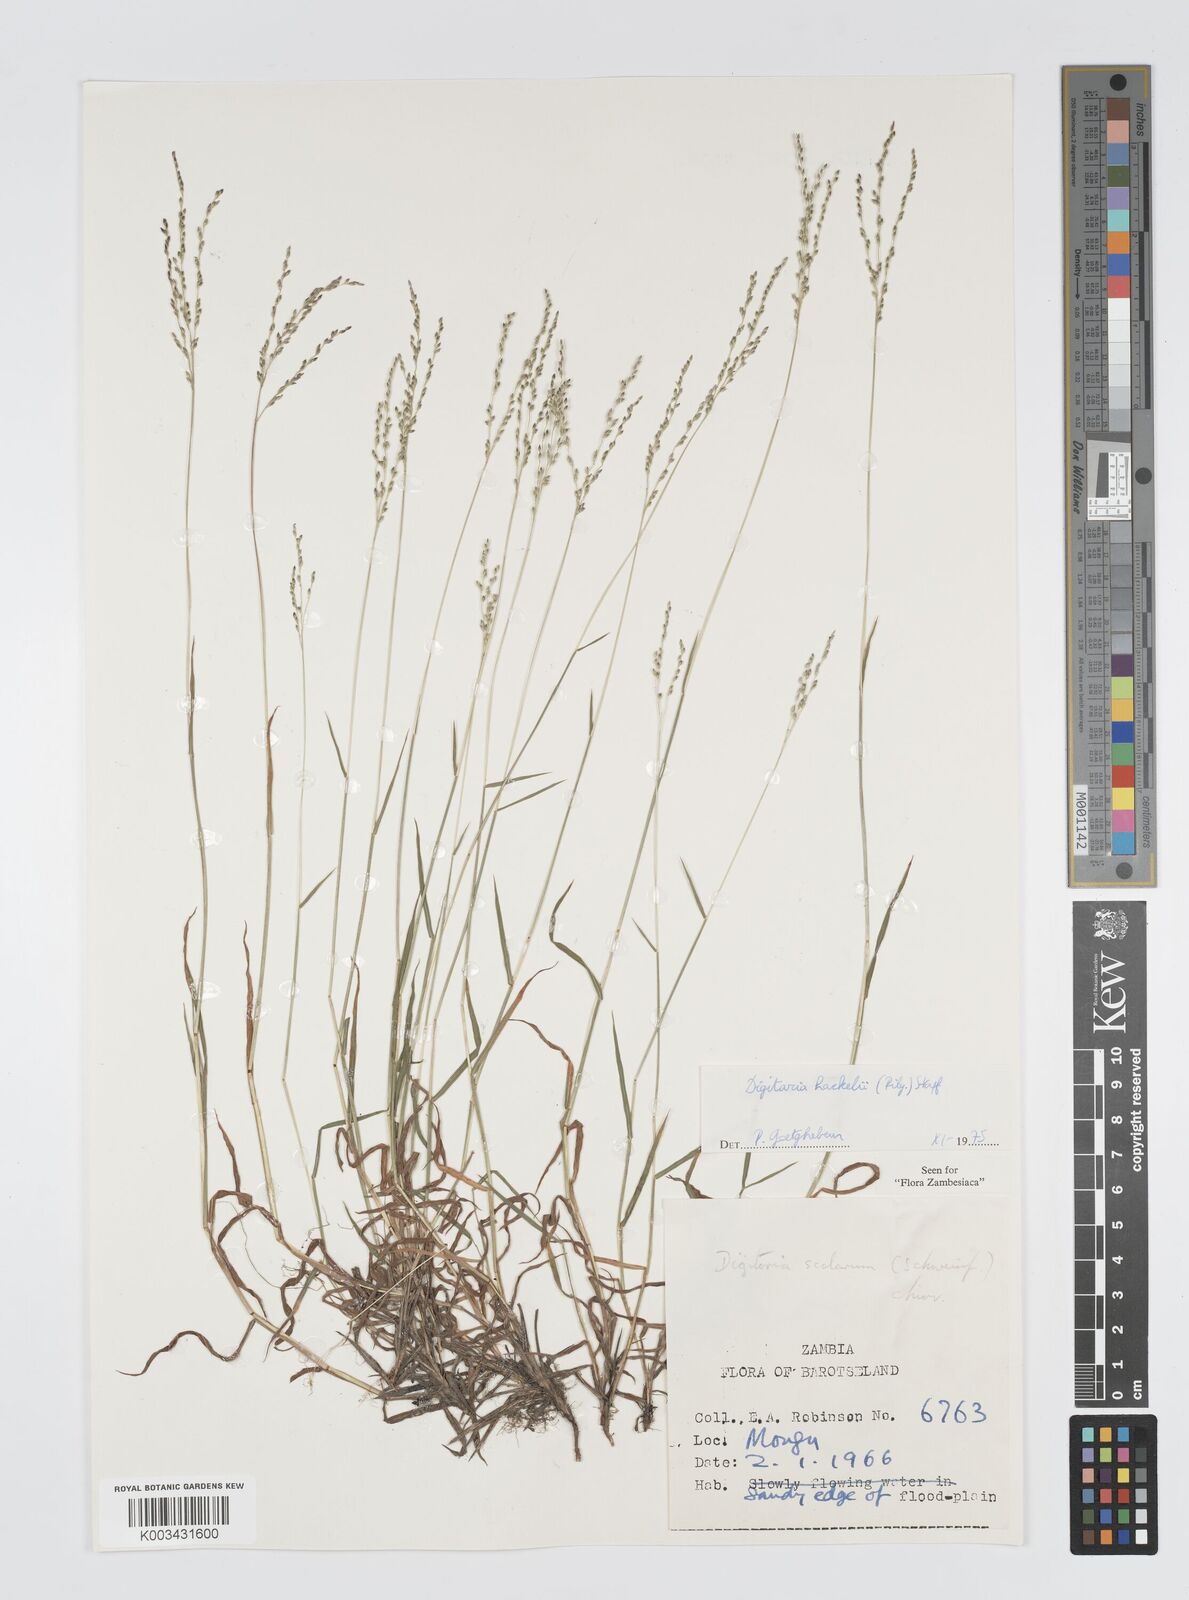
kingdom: Plantae
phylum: Tracheophyta
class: Liliopsida
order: Poales
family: Poaceae
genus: Digitaria
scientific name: Digitaria abyssinica
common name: African couchgrass
